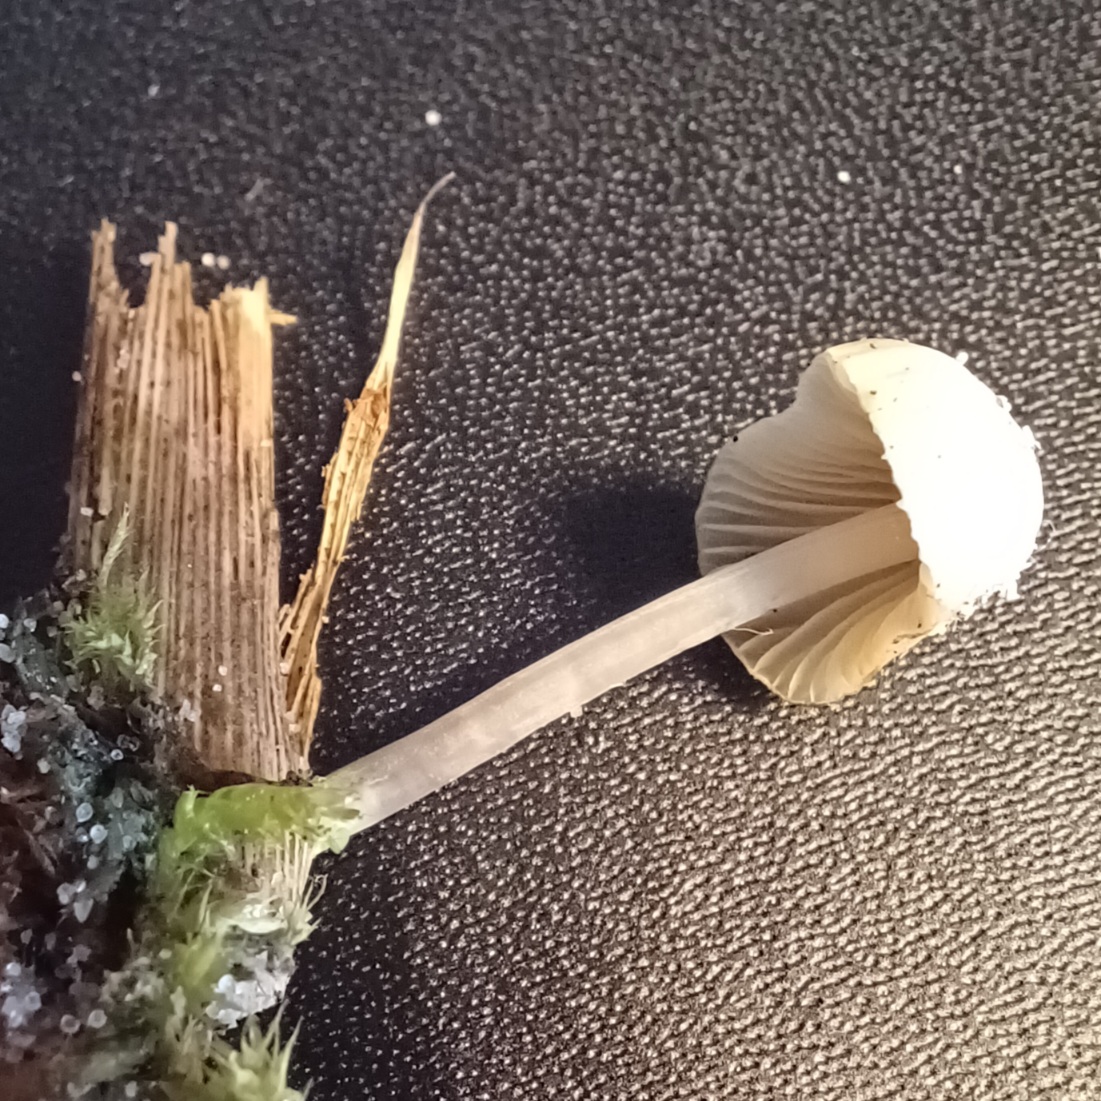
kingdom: Fungi
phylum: Basidiomycota
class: Agaricomycetes
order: Agaricales
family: Mycenaceae
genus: Mycena
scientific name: Mycena chlorantha
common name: klit-huesvamp
